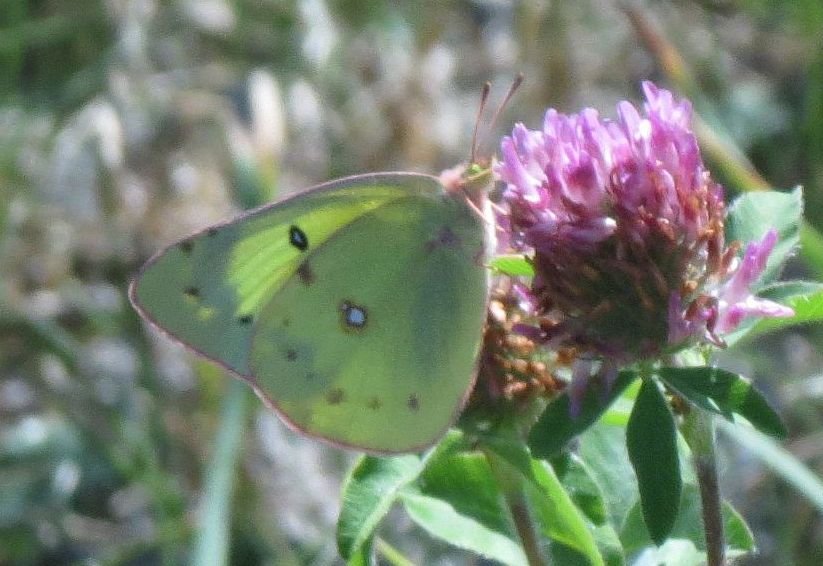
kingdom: Animalia
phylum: Arthropoda
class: Insecta
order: Lepidoptera
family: Pieridae
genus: Colias
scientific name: Colias philodice
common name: Clouded Sulphur
